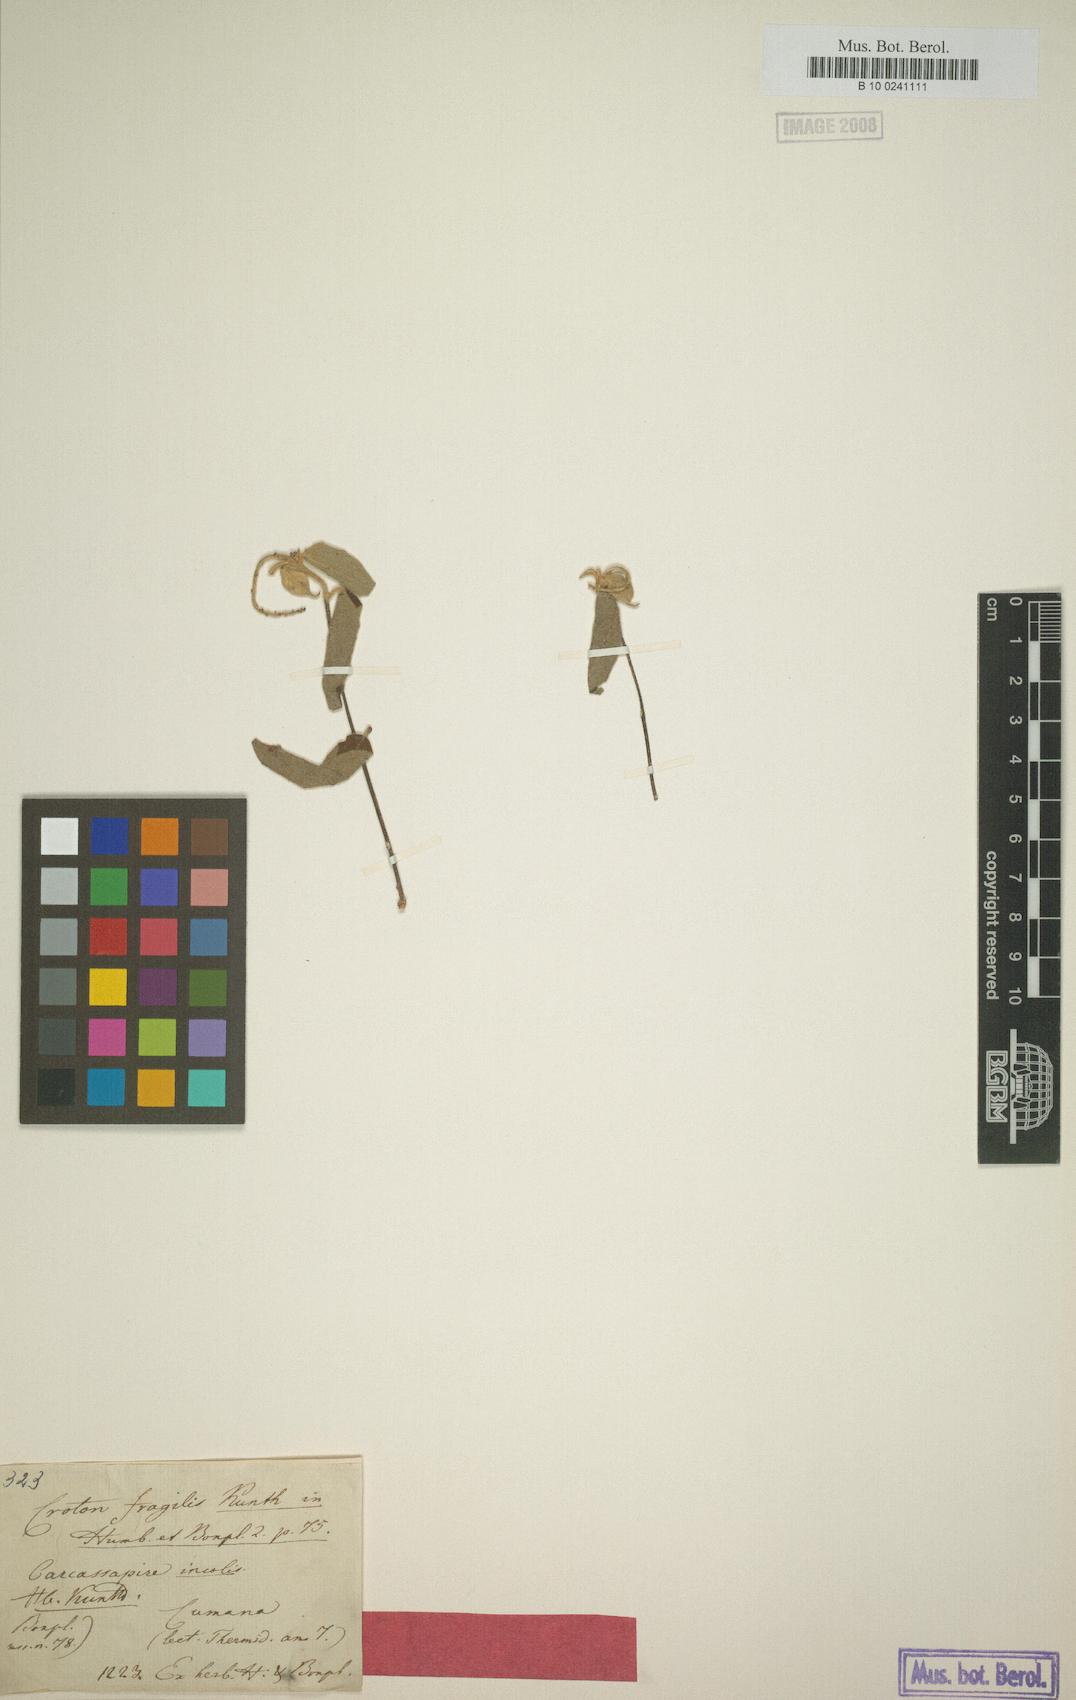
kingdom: Plantae
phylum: Tracheophyta
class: Magnoliopsida
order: Malpighiales
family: Euphorbiaceae
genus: Croton
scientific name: Croton fragilis
